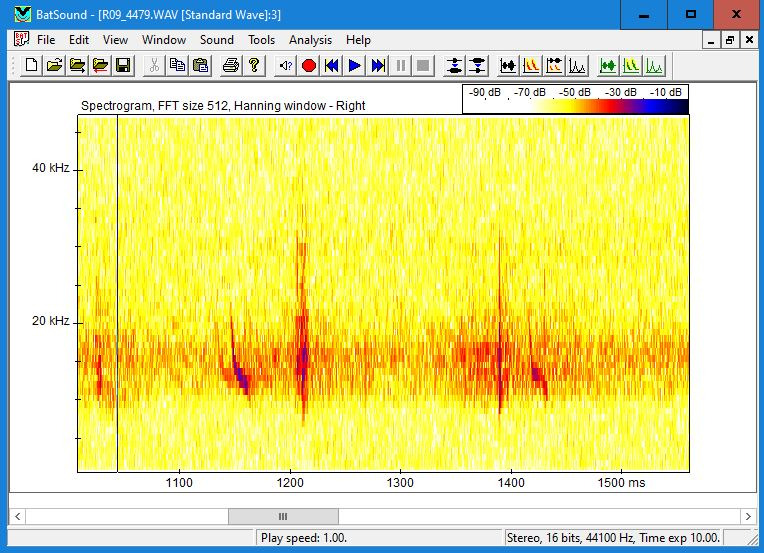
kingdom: Animalia
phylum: Chordata
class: Mammalia
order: Chiroptera
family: Vespertilionidae
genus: Vespertilio
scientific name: Vespertilio murinus
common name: Skimmelflagermus
